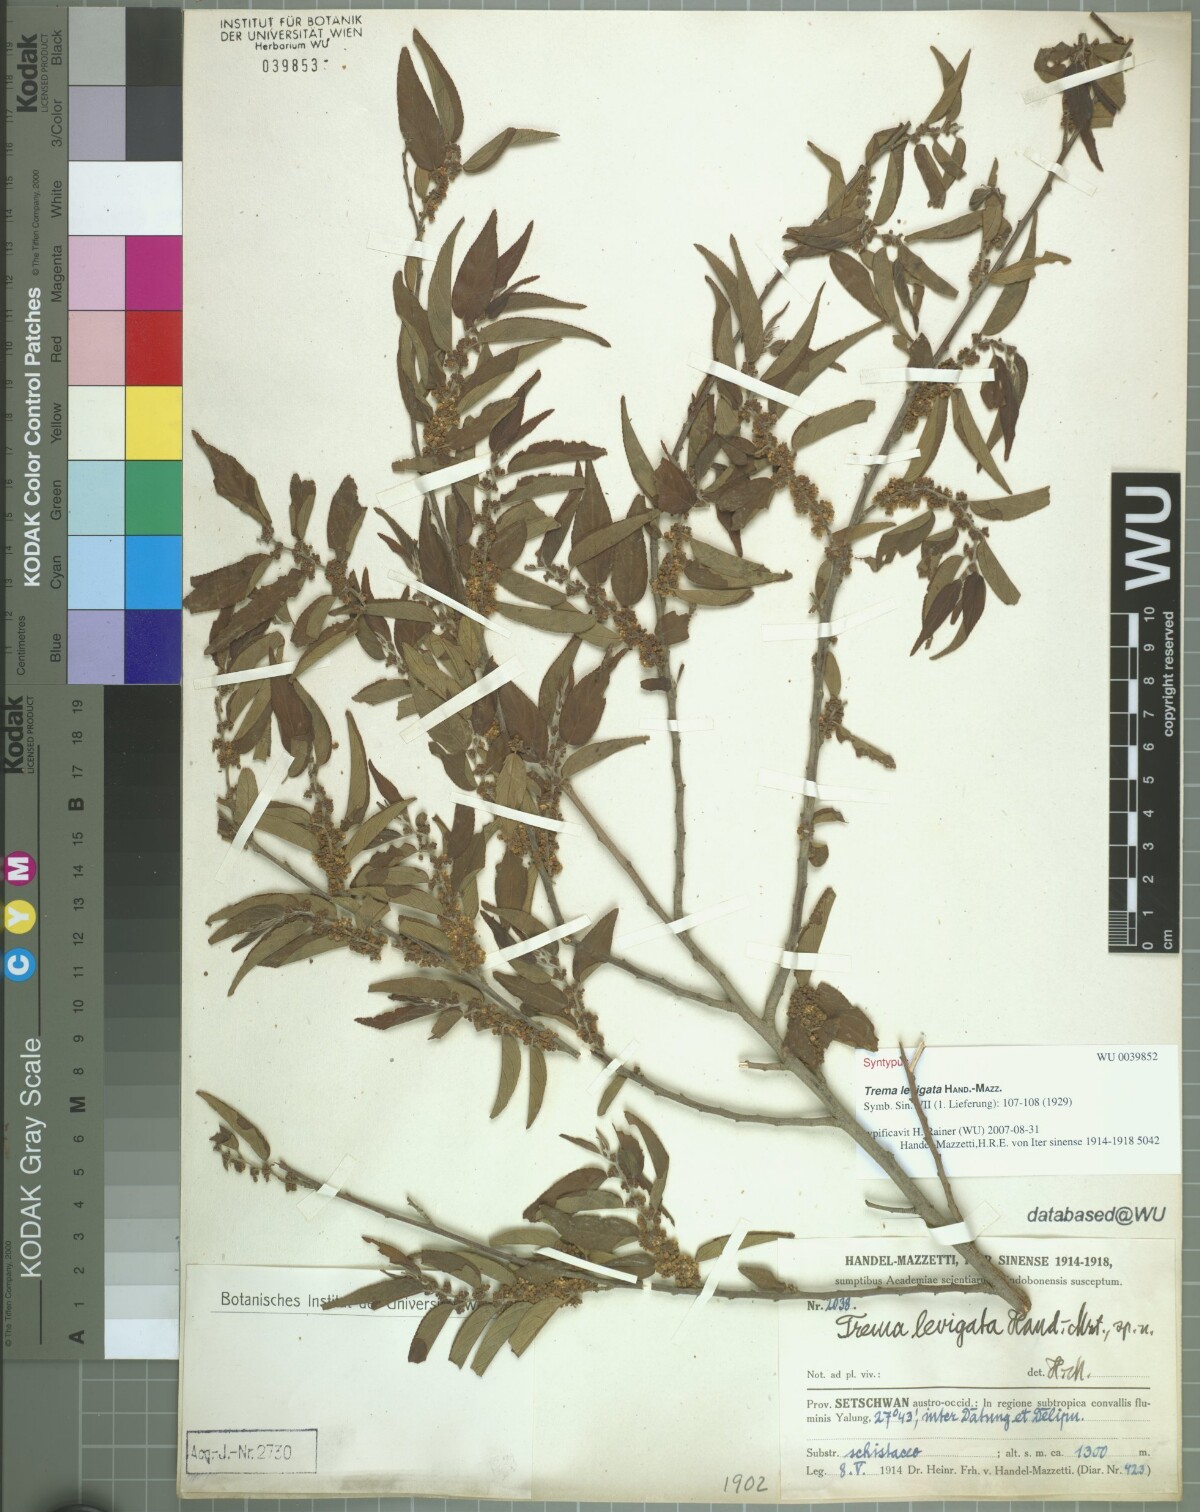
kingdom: Plantae
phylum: Tracheophyta
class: Magnoliopsida
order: Rosales
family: Cannabaceae
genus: Trema
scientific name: Trema levigatum
